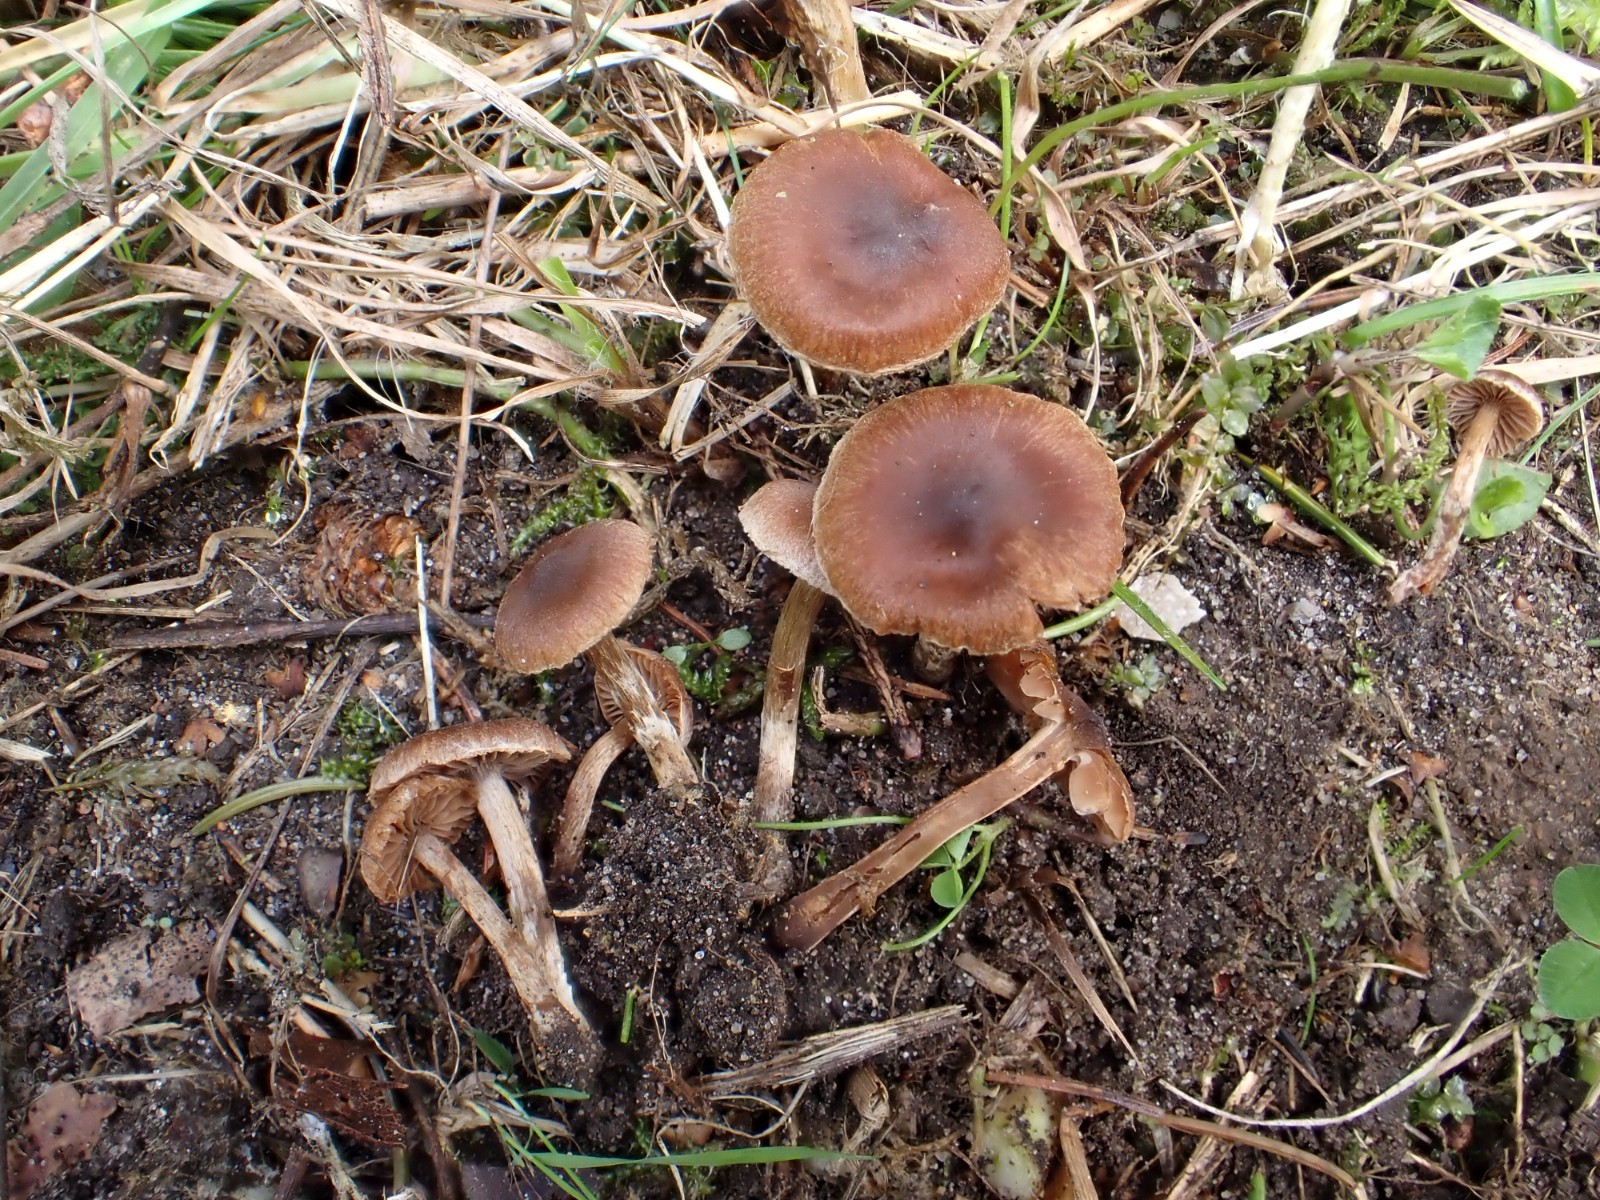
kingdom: Fungi
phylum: Basidiomycota
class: Agaricomycetes
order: Agaricales
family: Cortinariaceae
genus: Cortinarius
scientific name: Cortinarius
